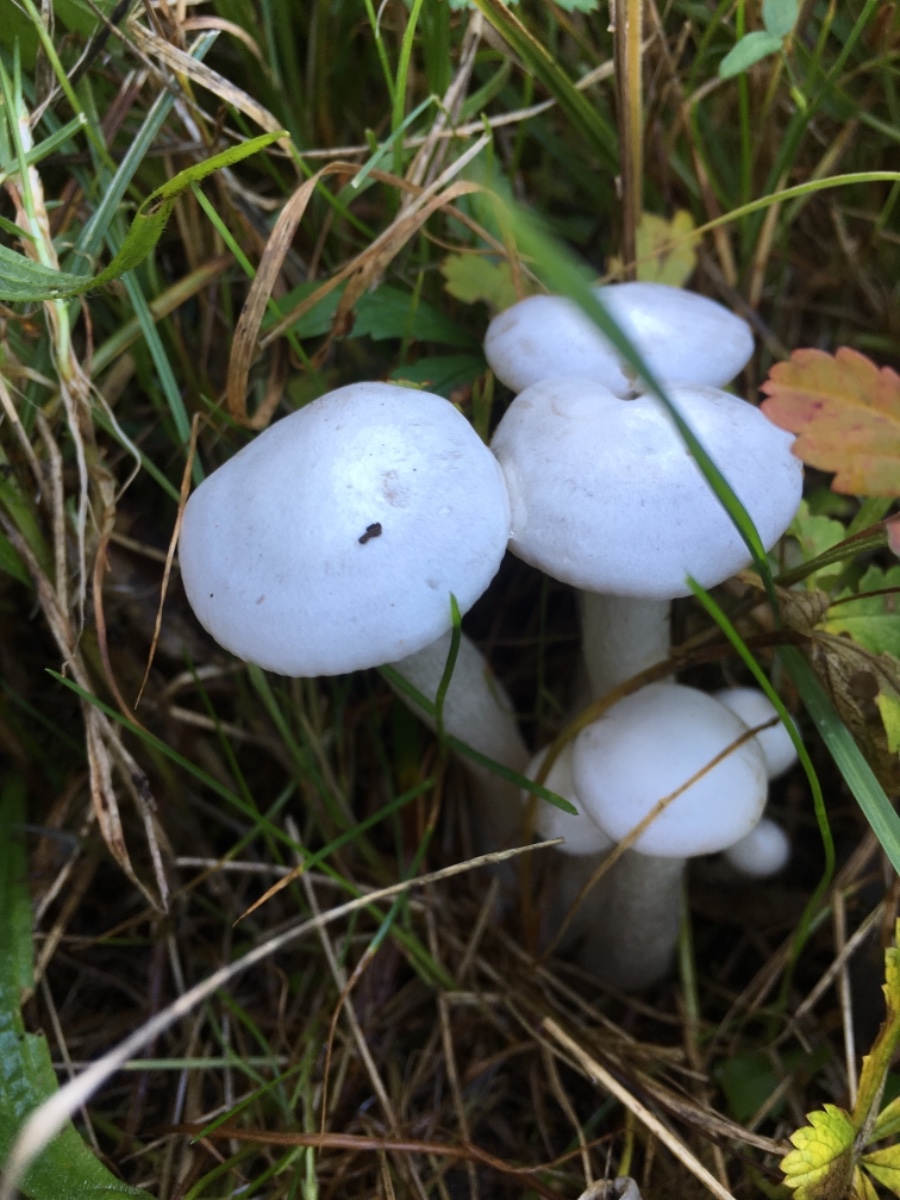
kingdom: Fungi
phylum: Basidiomycota
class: Agaricomycetes
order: Agaricales
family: Tricholomataceae
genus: Leucocybe
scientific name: Leucocybe connata
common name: knippe-tragthat
